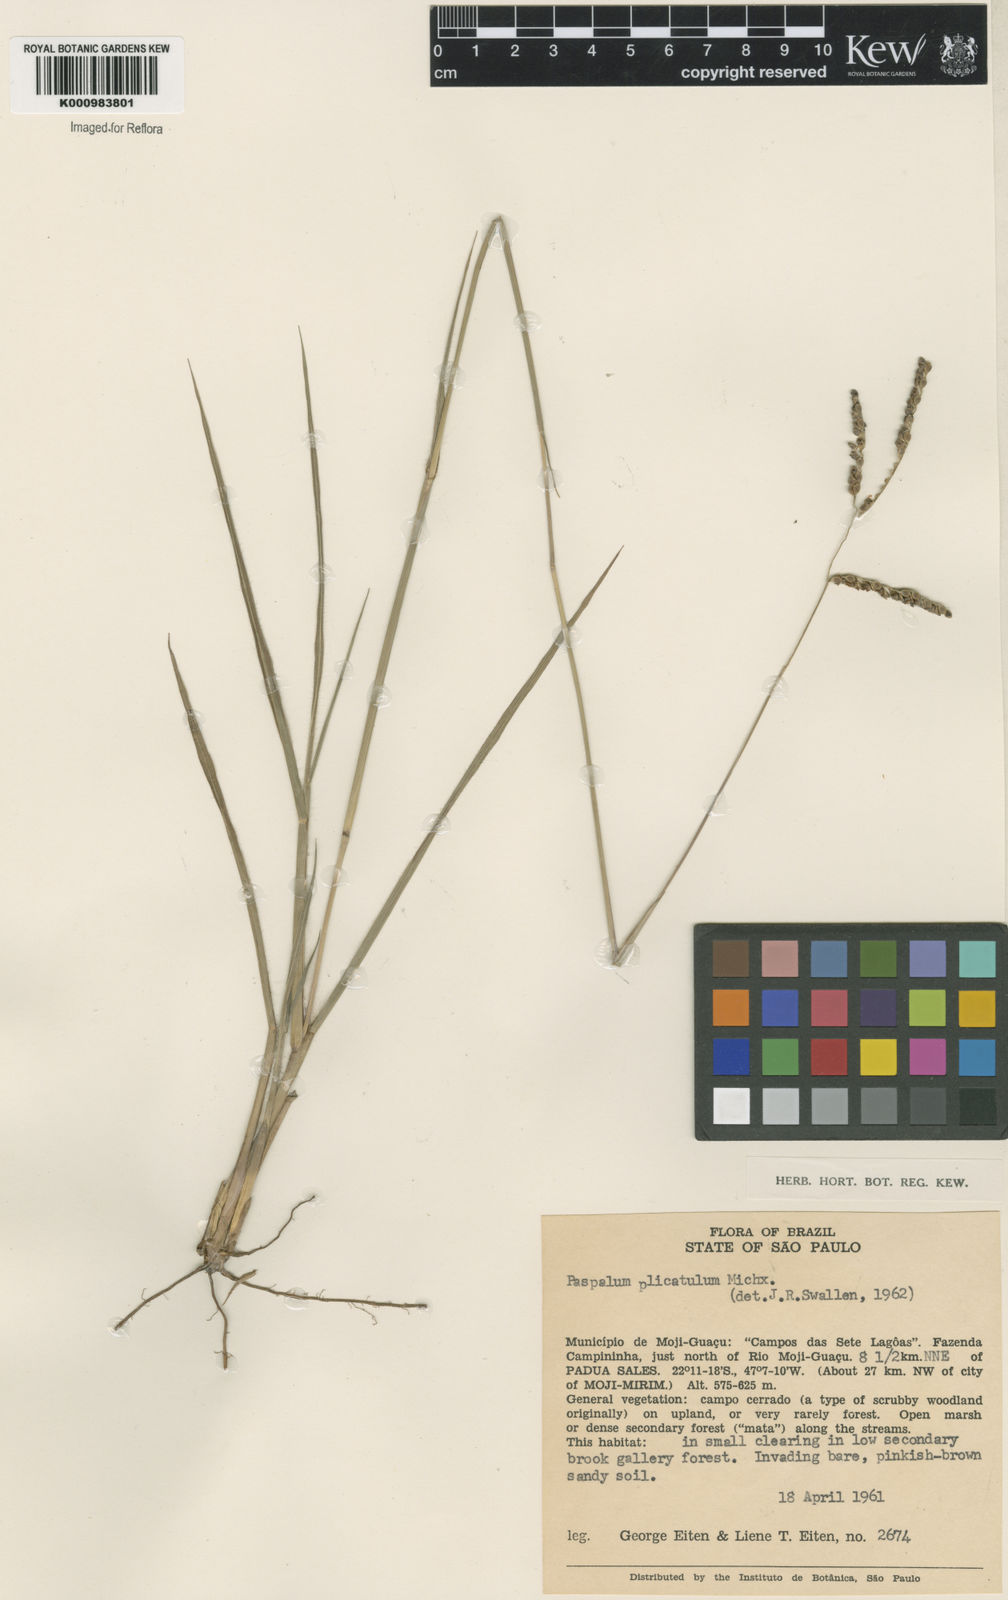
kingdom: Plantae
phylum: Tracheophyta
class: Liliopsida
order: Poales
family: Poaceae
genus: Paspalum
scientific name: Paspalum plicatulum
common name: Top paspalum
